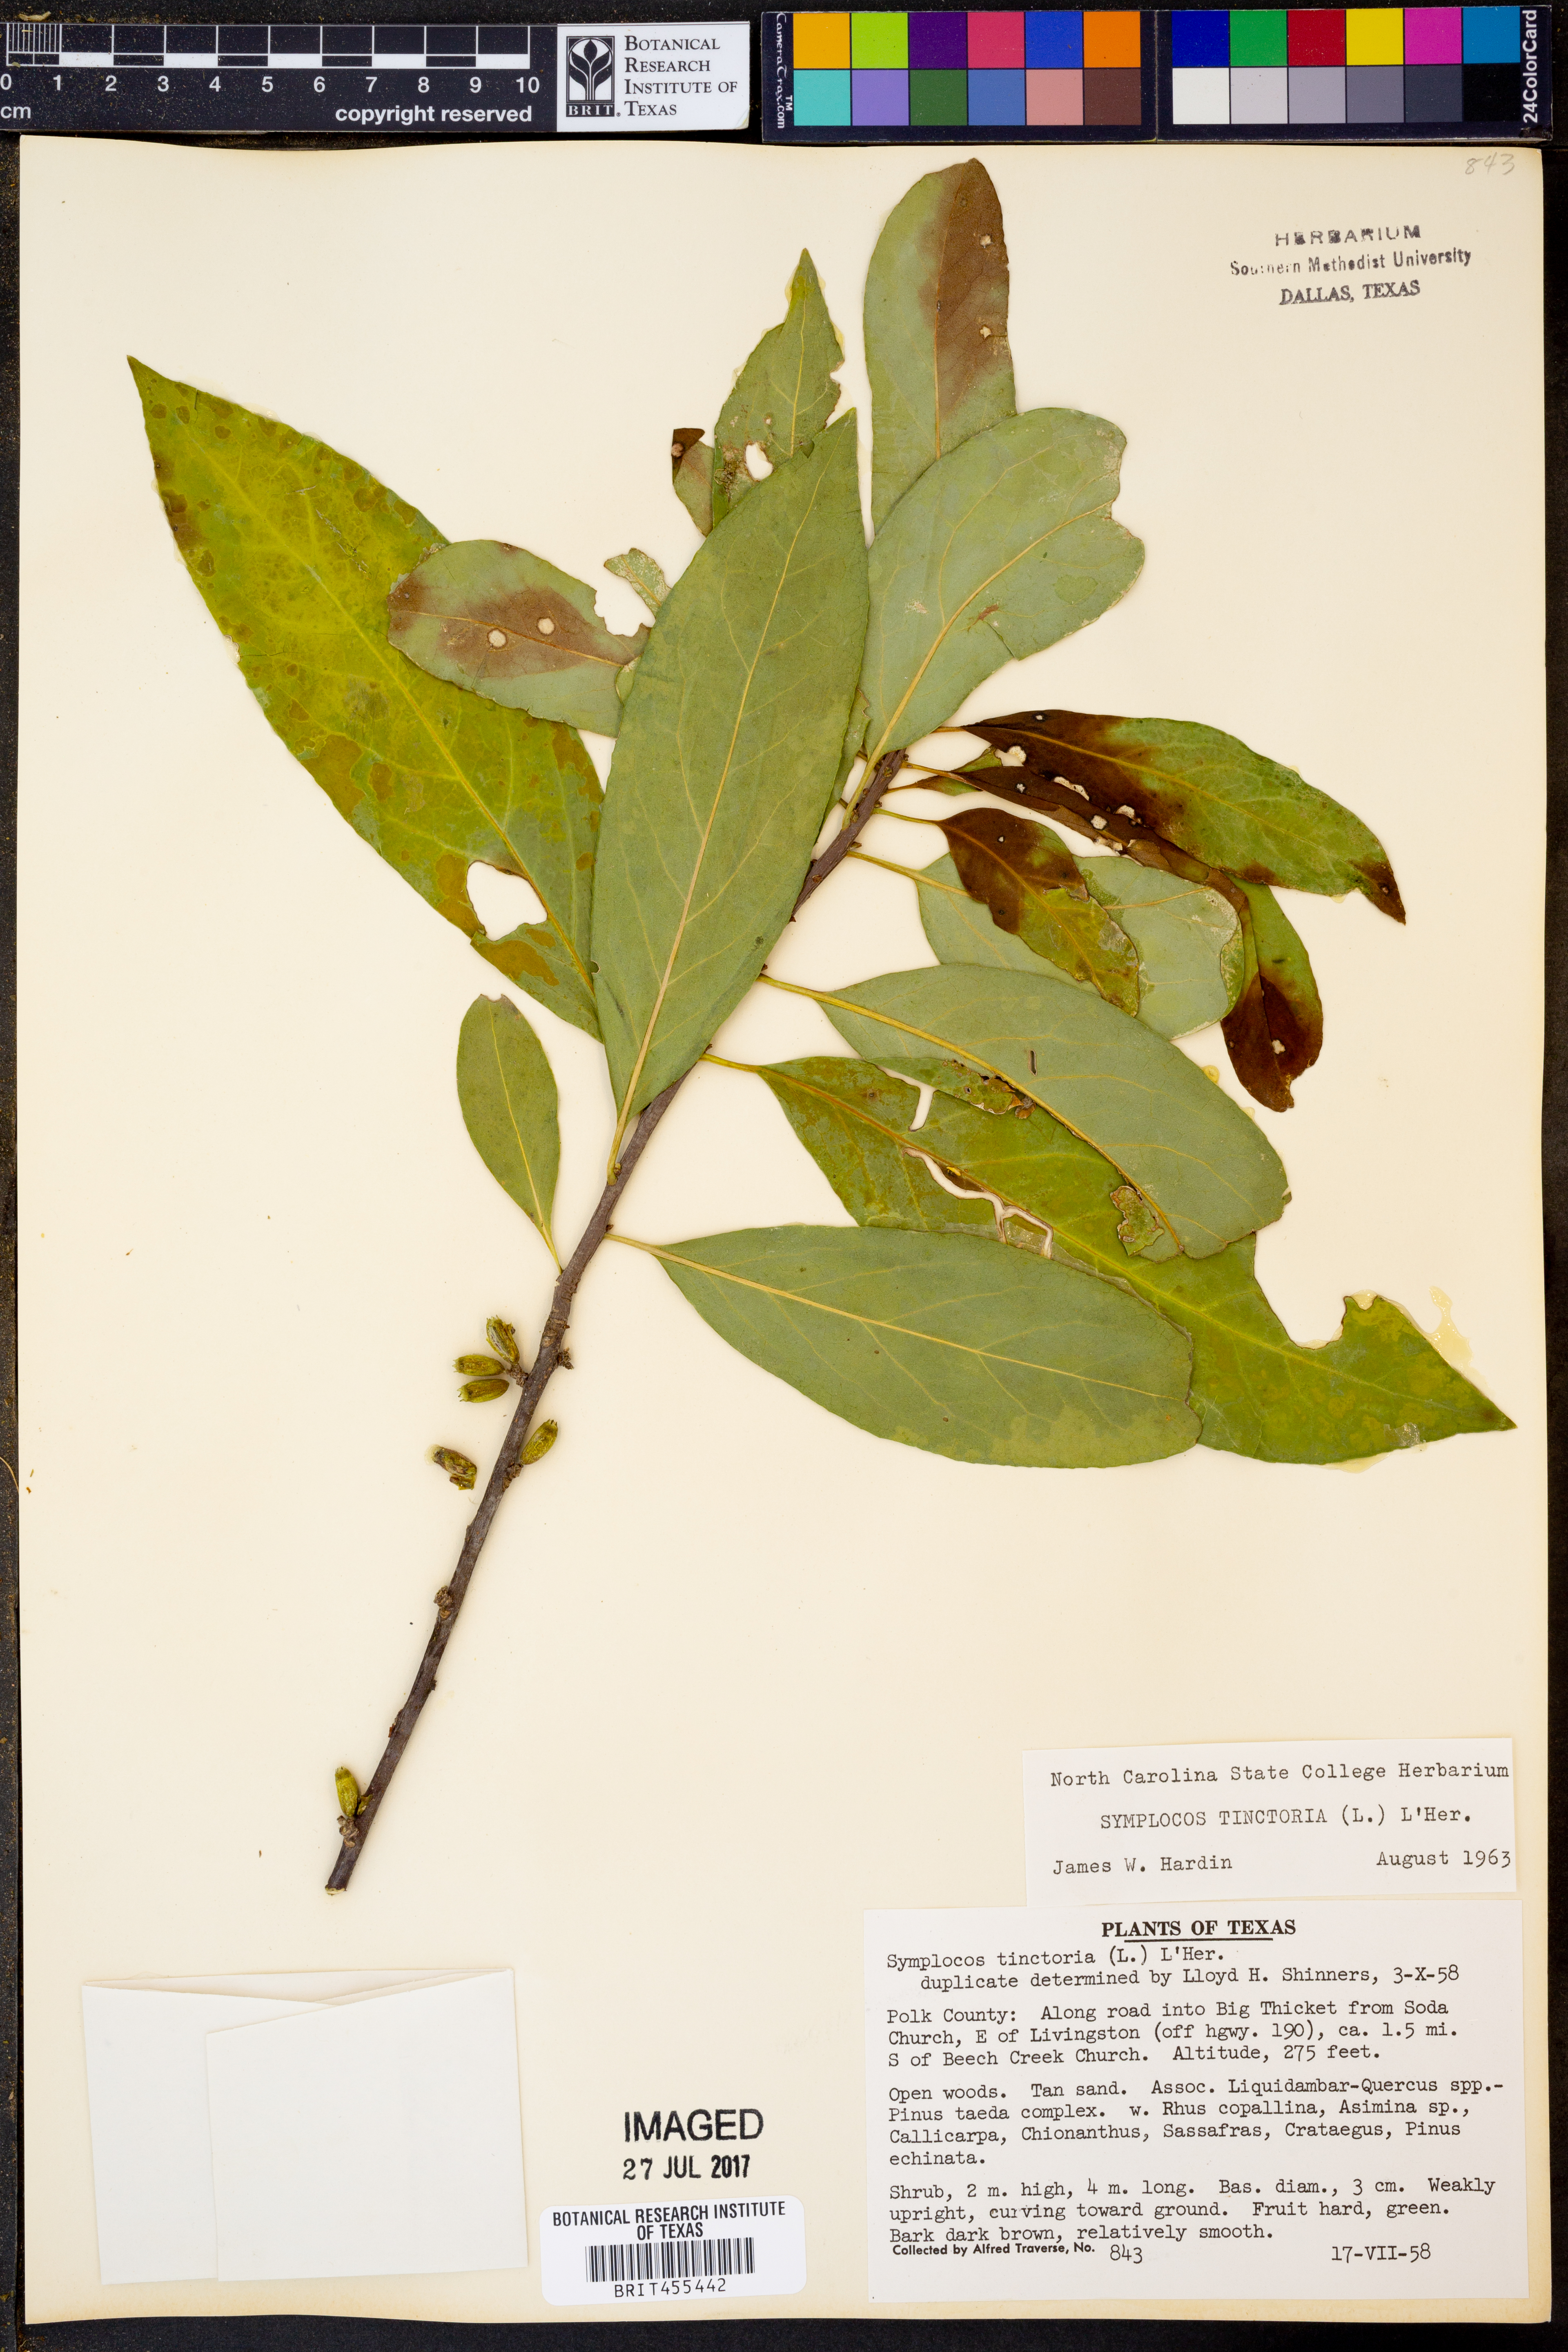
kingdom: Plantae
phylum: Tracheophyta
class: Magnoliopsida
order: Ericales
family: Symplocaceae
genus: Symplocos
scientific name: Symplocos tinctoria
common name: Horse-sugar
